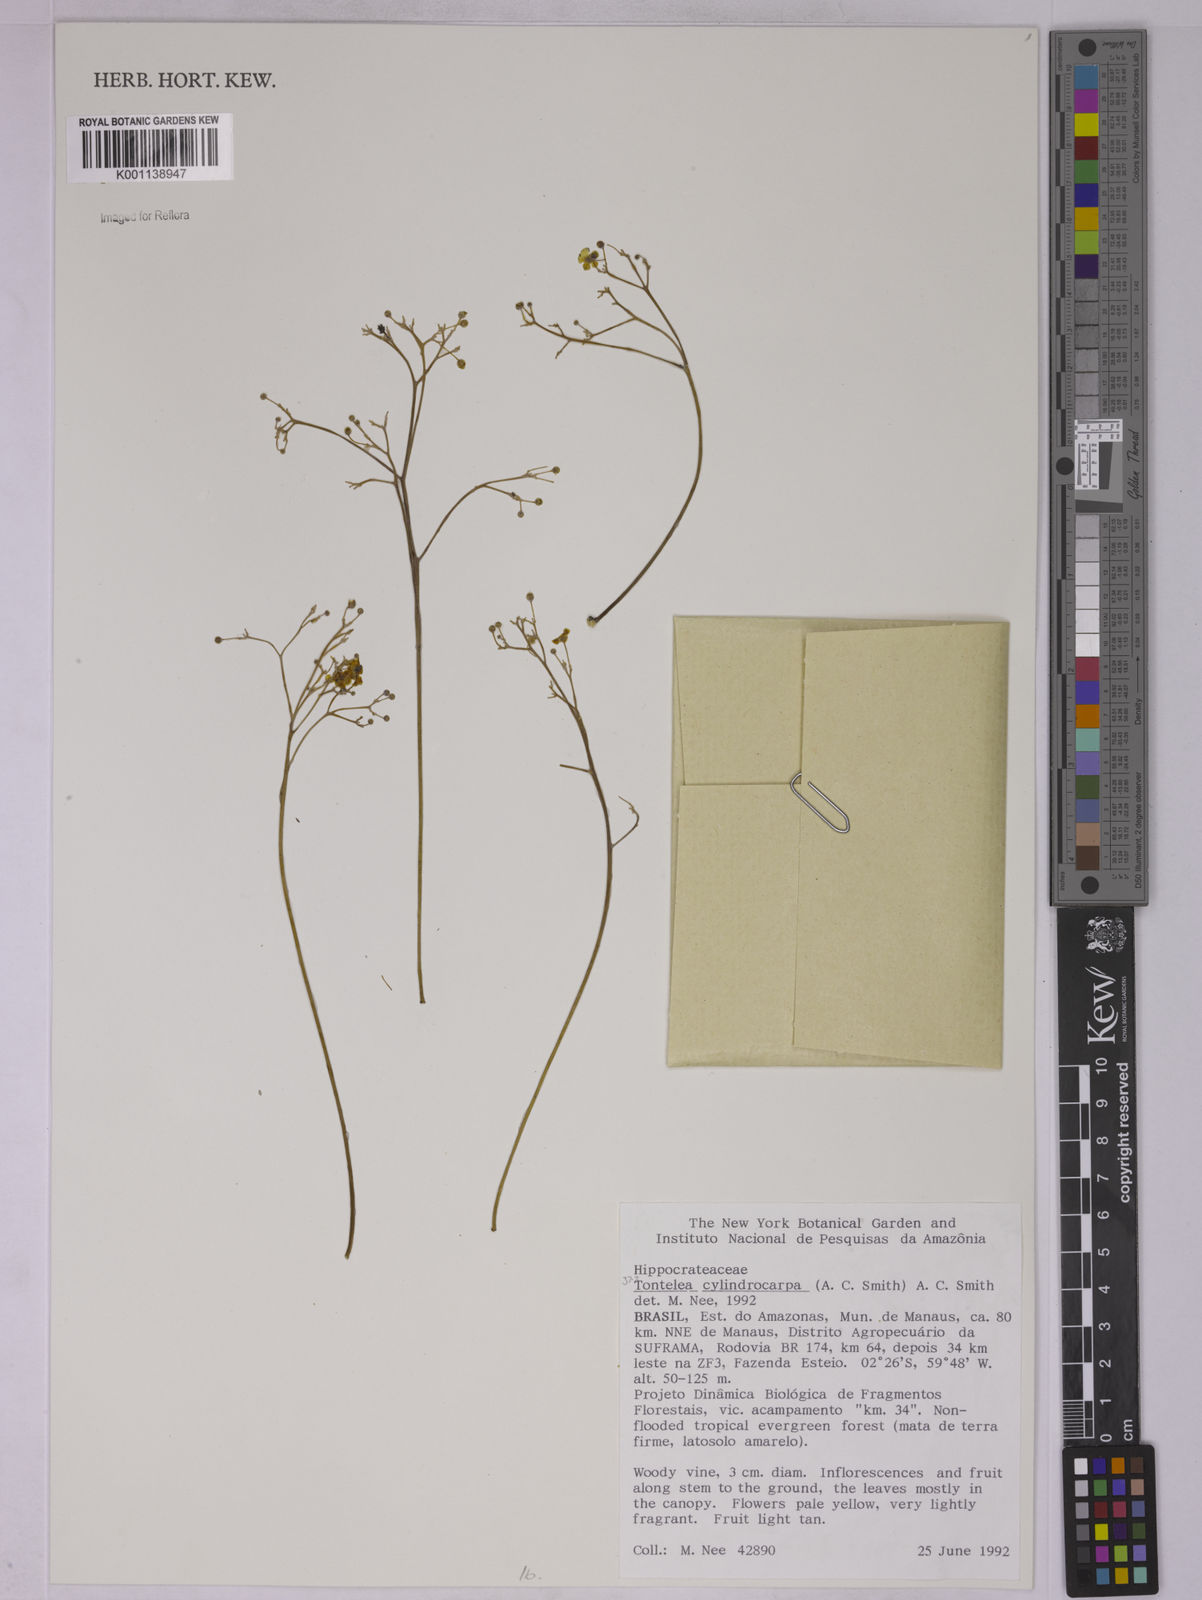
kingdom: Plantae
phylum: Tracheophyta
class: Magnoliopsida
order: Celastrales
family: Celastraceae
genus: Tontelea
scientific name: Tontelea cylindrocarpa
